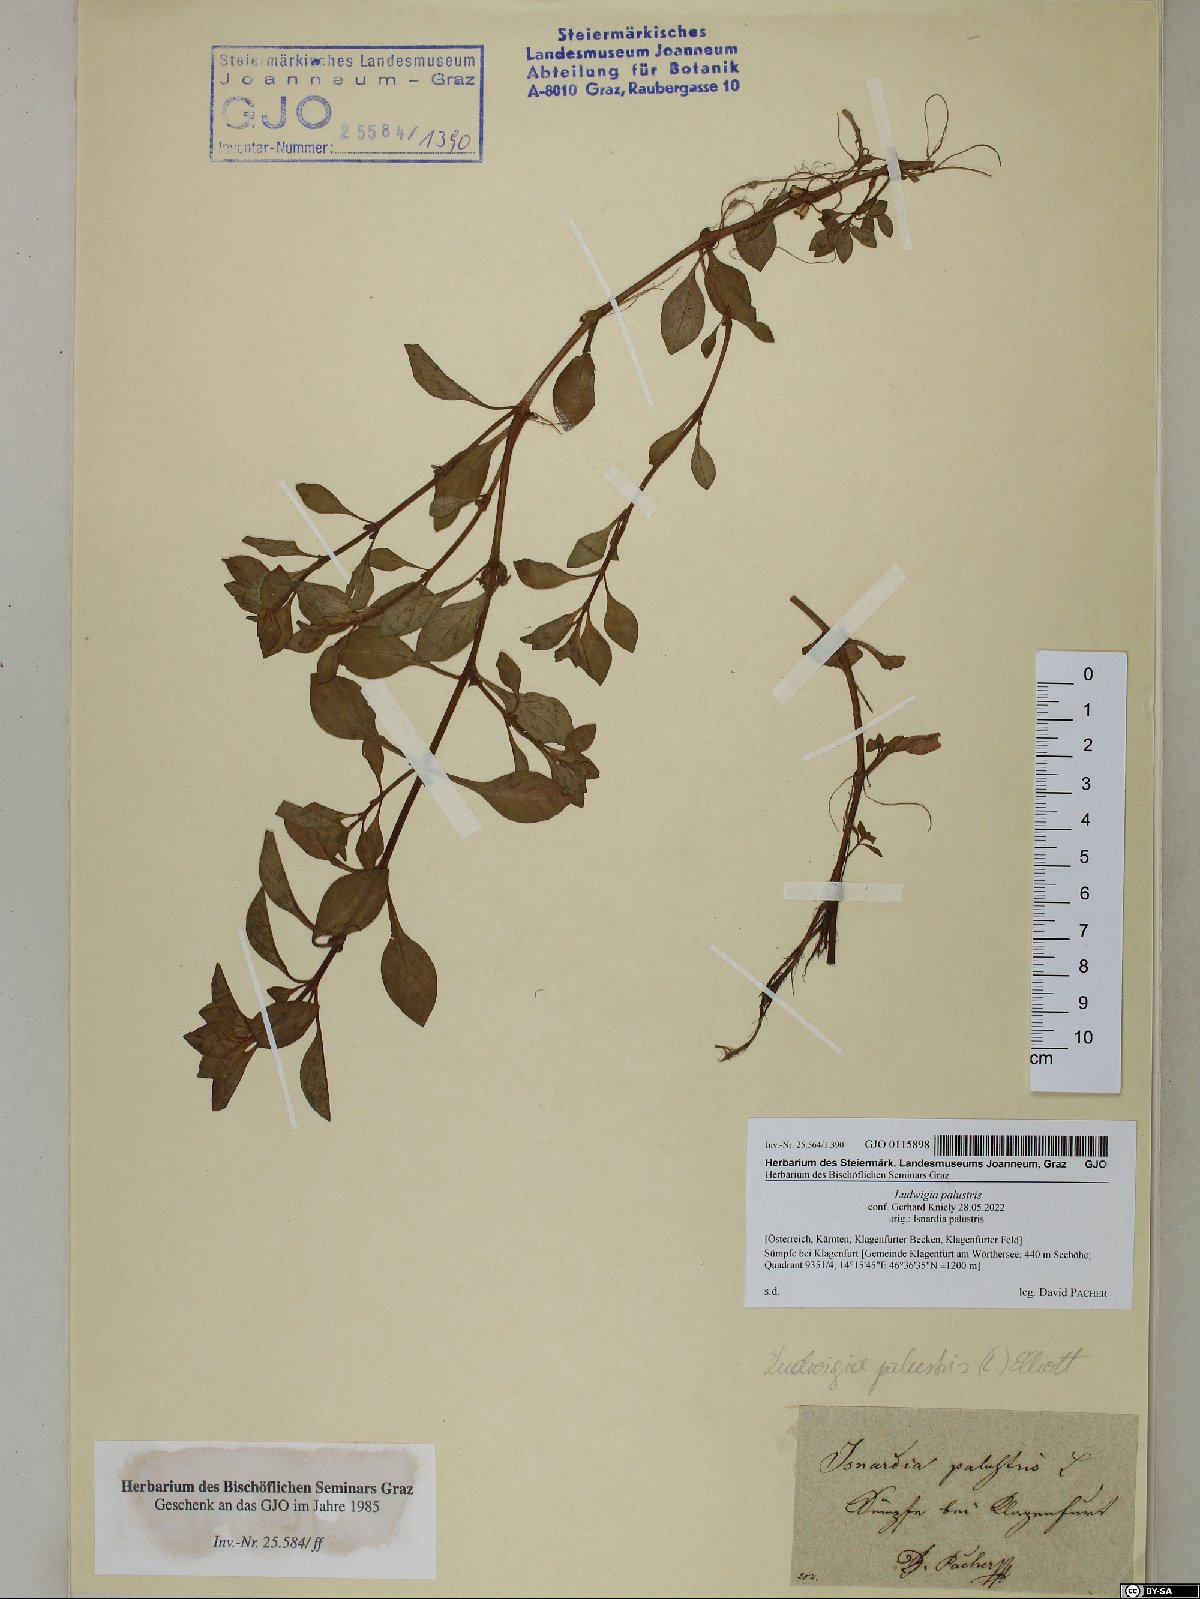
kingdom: Plantae
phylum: Tracheophyta
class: Magnoliopsida
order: Myrtales
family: Onagraceae
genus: Ludwigia
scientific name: Ludwigia palustris
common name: Hampshire-purslane
